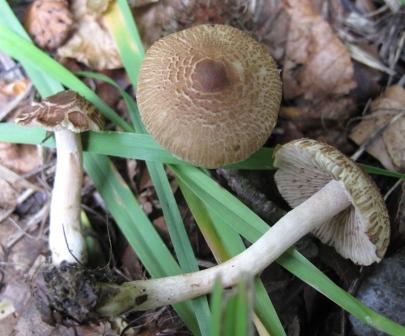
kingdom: Fungi
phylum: Basidiomycota
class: Agaricomycetes
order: Agaricales
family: Inocybaceae
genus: Inocybe
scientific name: Inocybe
